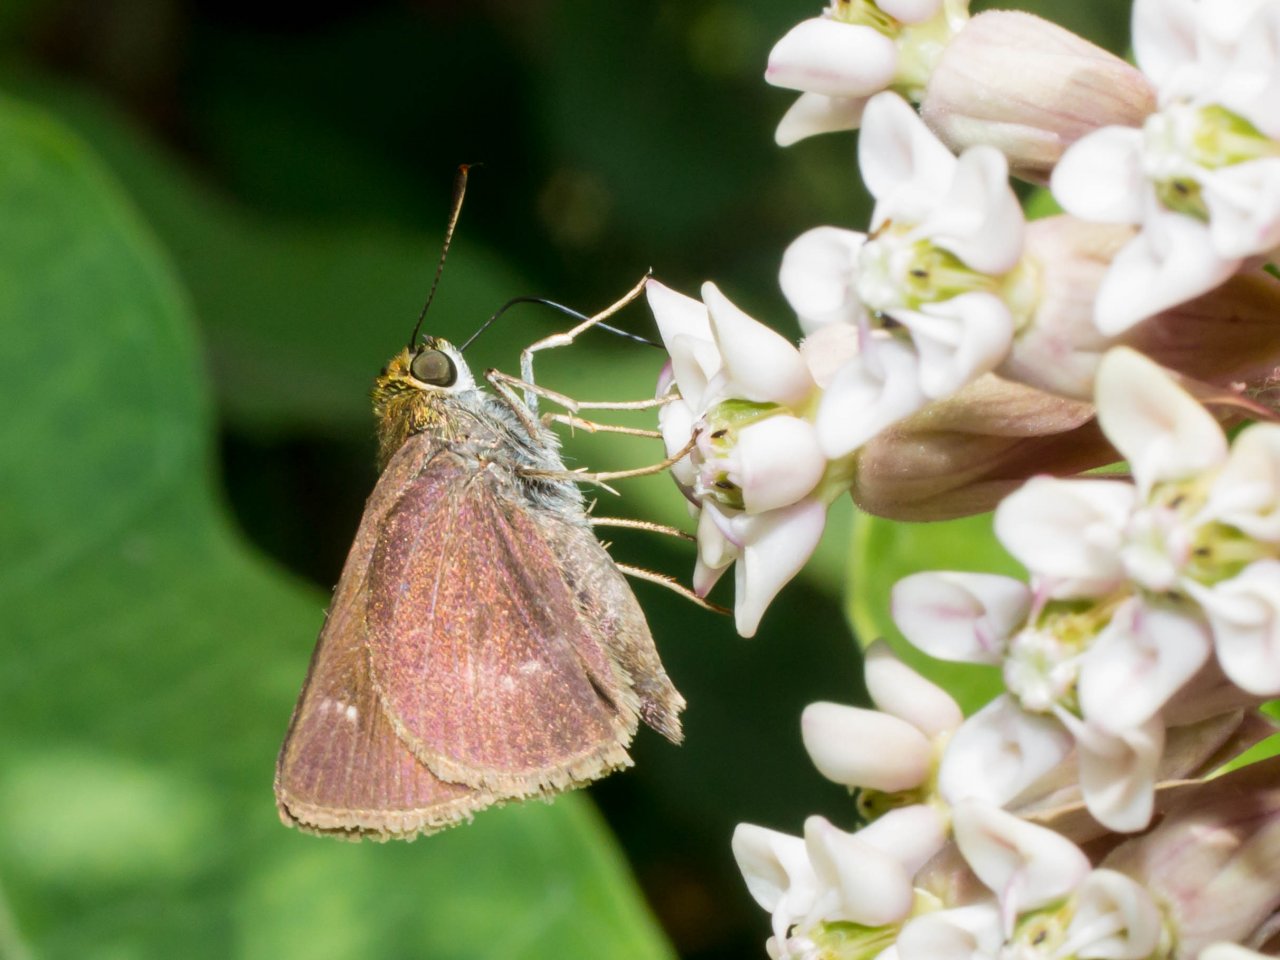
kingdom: Animalia
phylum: Arthropoda
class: Insecta
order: Lepidoptera
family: Hesperiidae
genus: Vernia
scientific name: Vernia verna
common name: Little Glassywing
